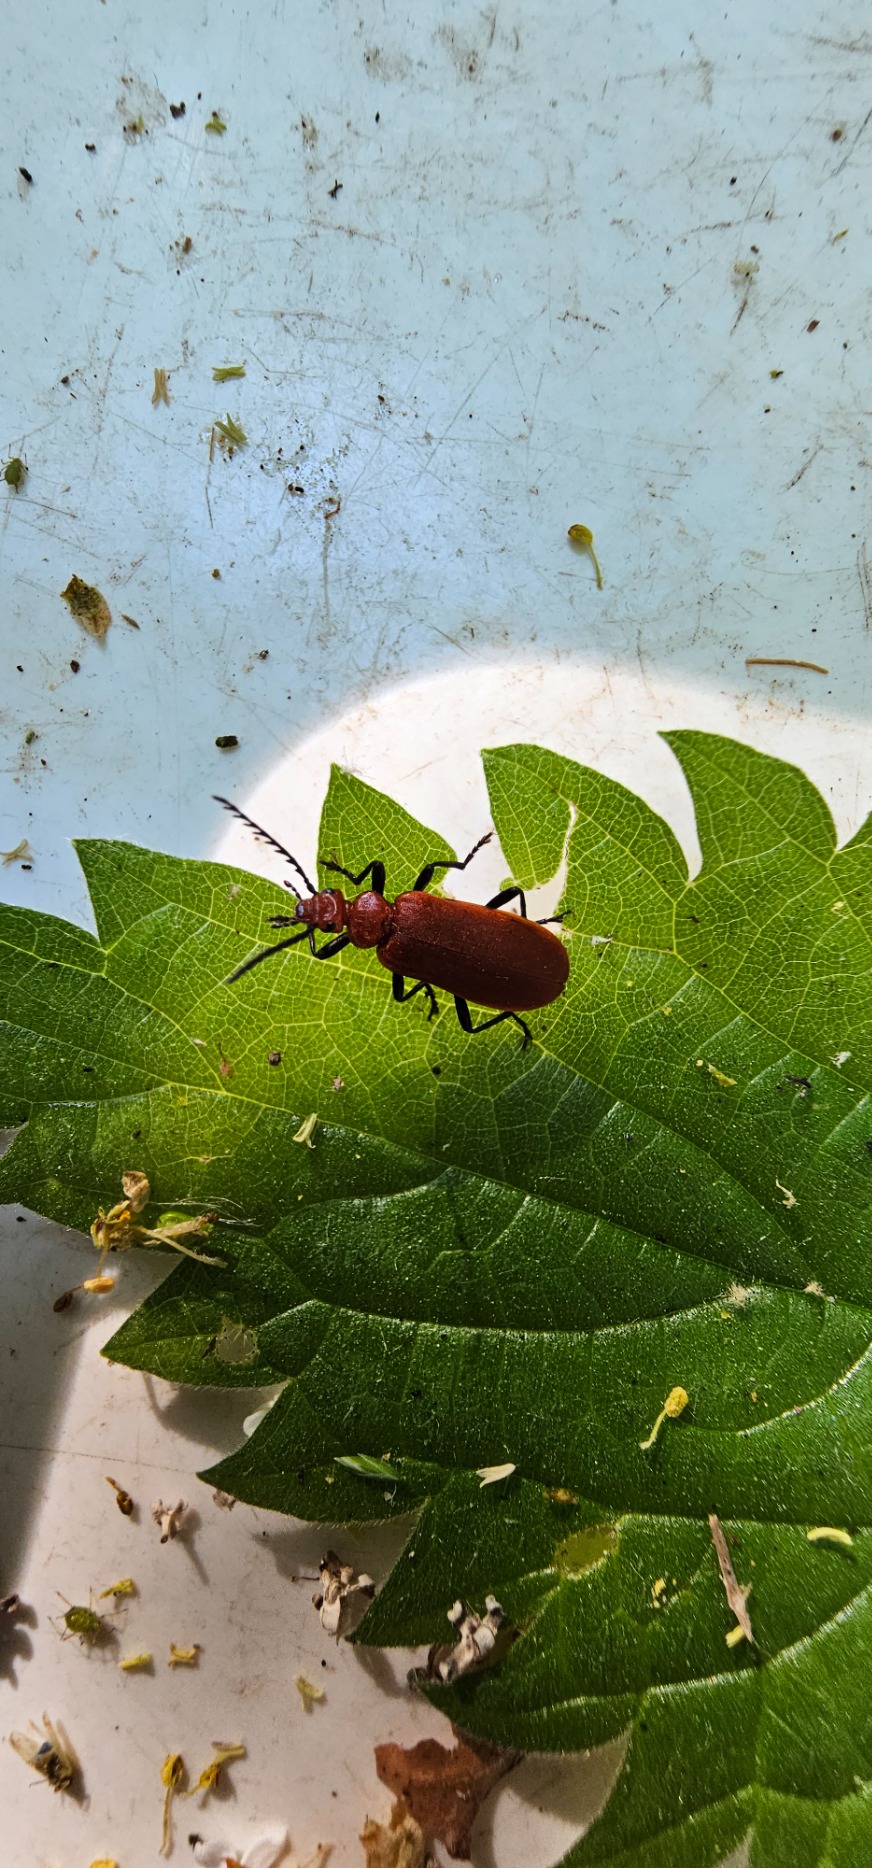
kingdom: Animalia
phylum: Arthropoda
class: Insecta
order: Coleoptera
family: Pyrochroidae
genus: Pyrochroa
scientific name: Pyrochroa serraticornis
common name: Rødhovedet kardinalbille
